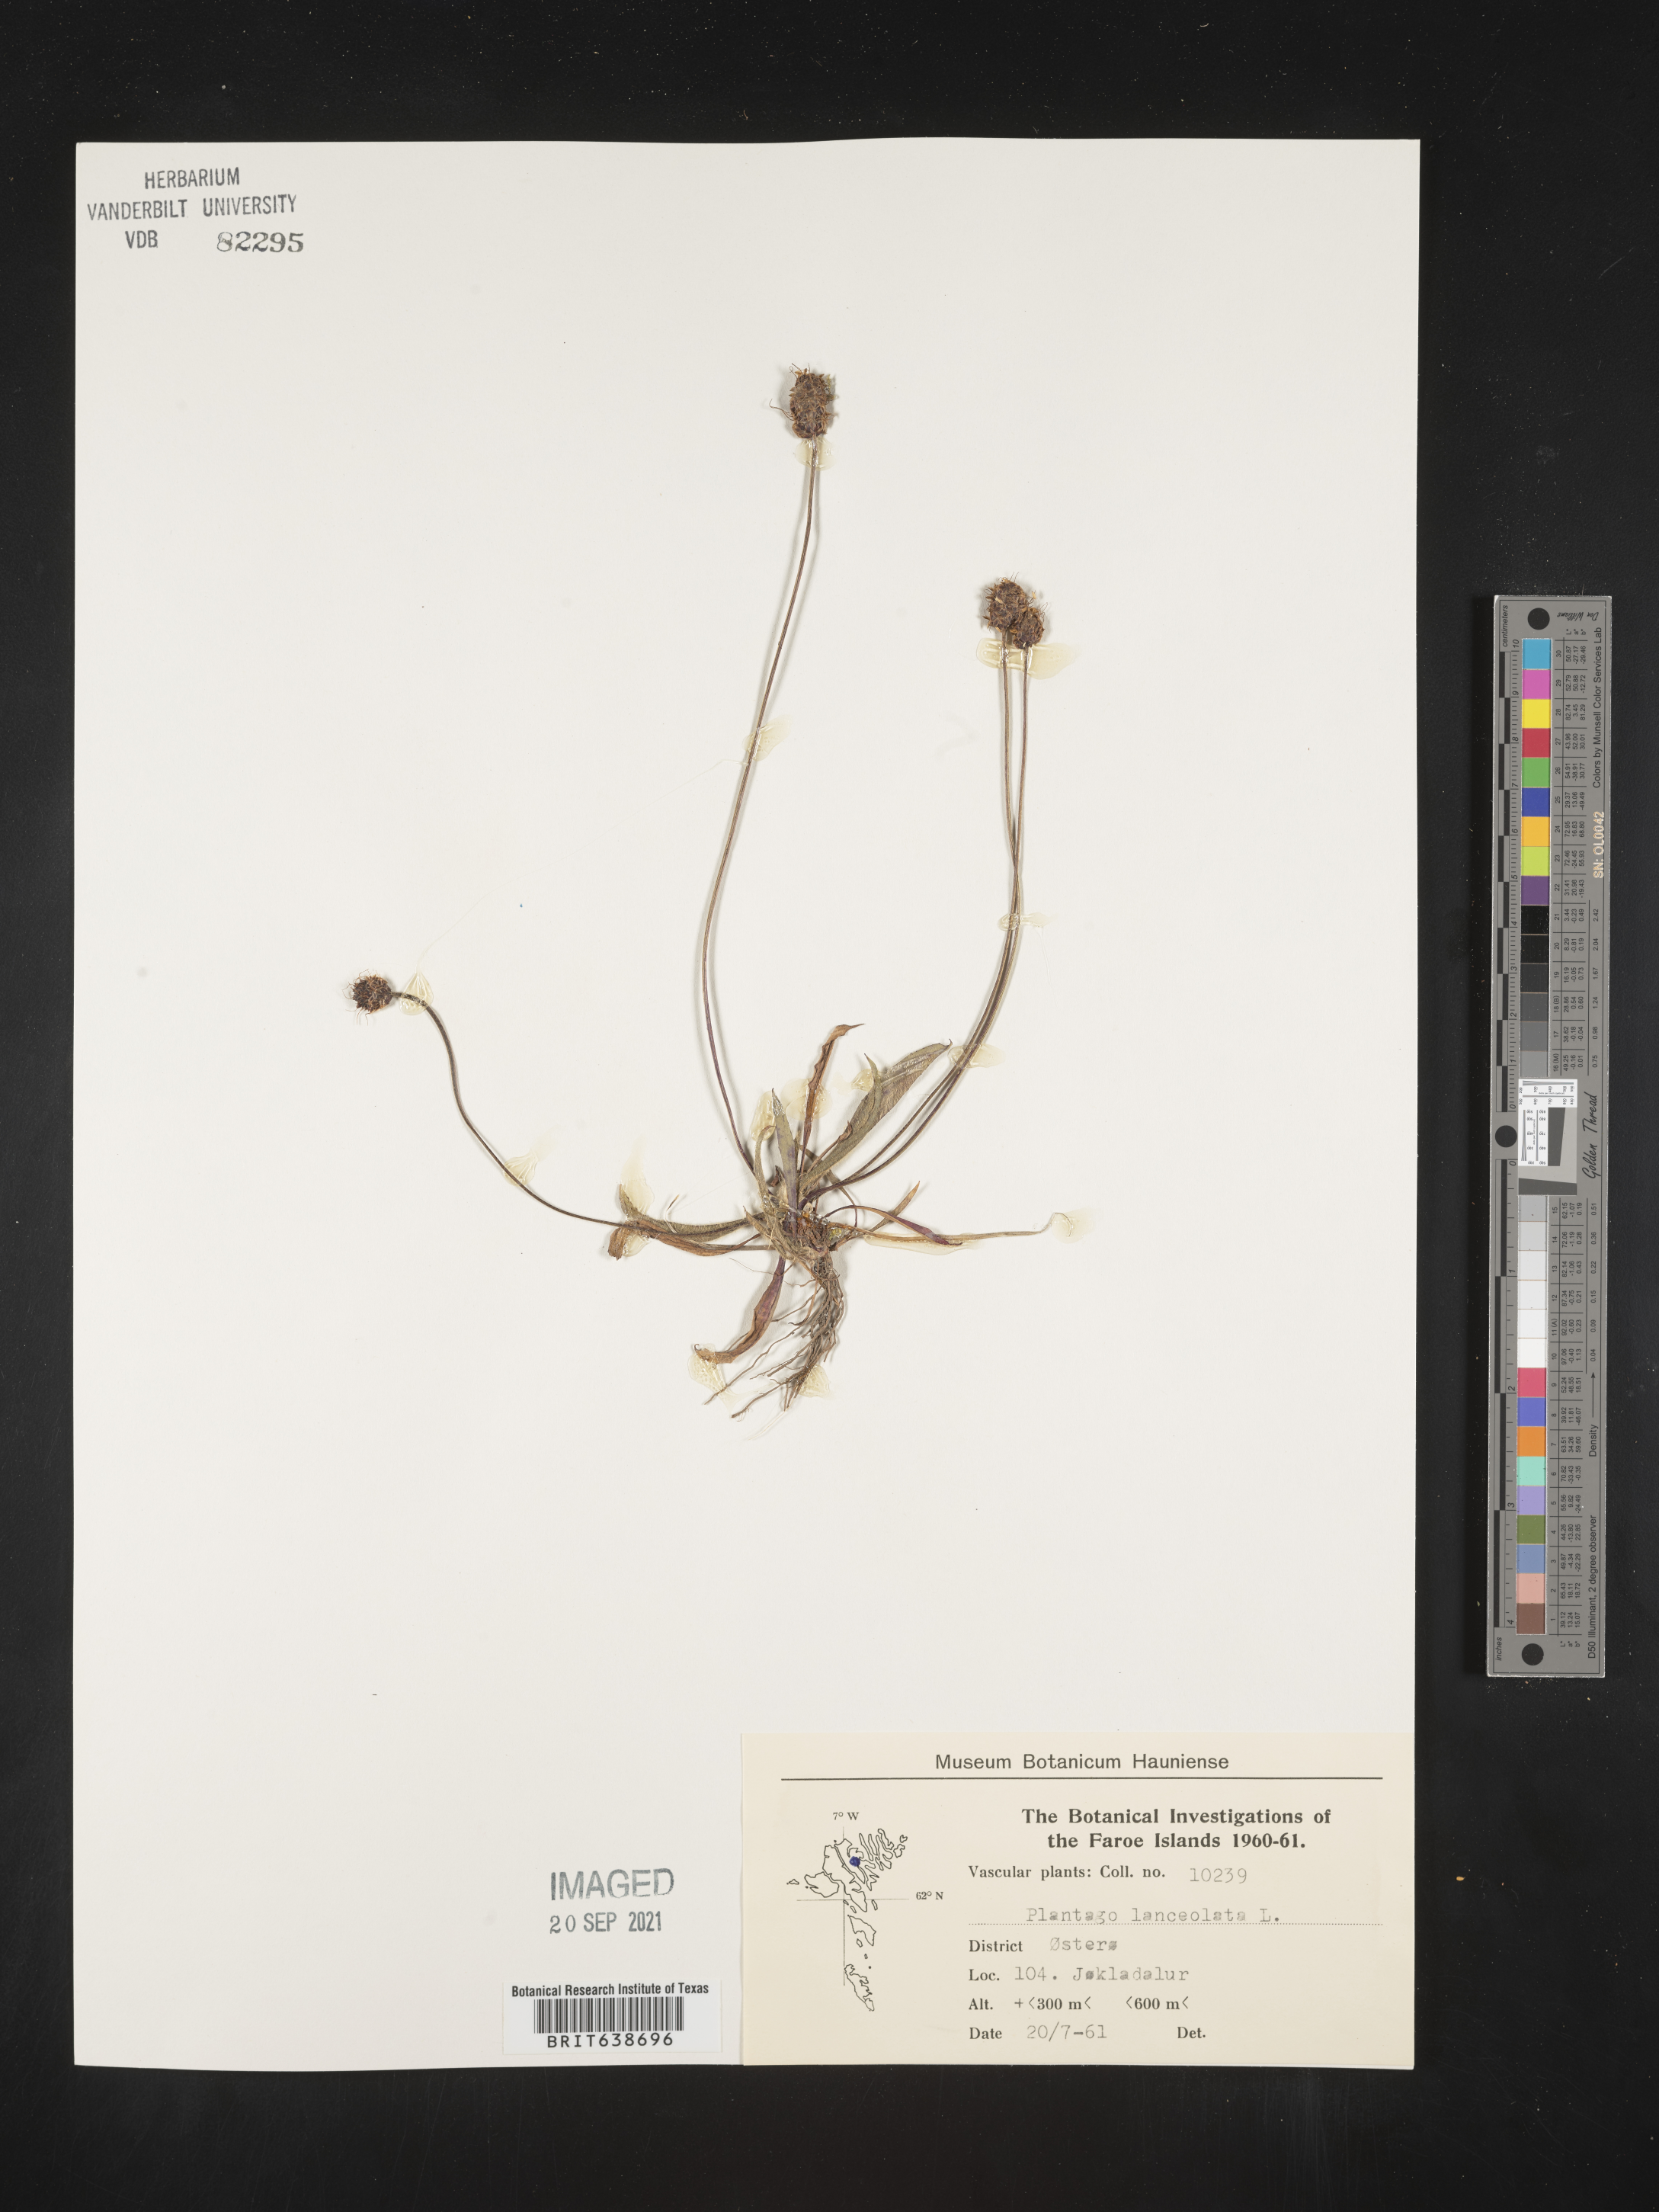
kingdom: Plantae
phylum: Tracheophyta
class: Magnoliopsida
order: Lamiales
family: Plantaginaceae
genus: Plantago
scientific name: Plantago
